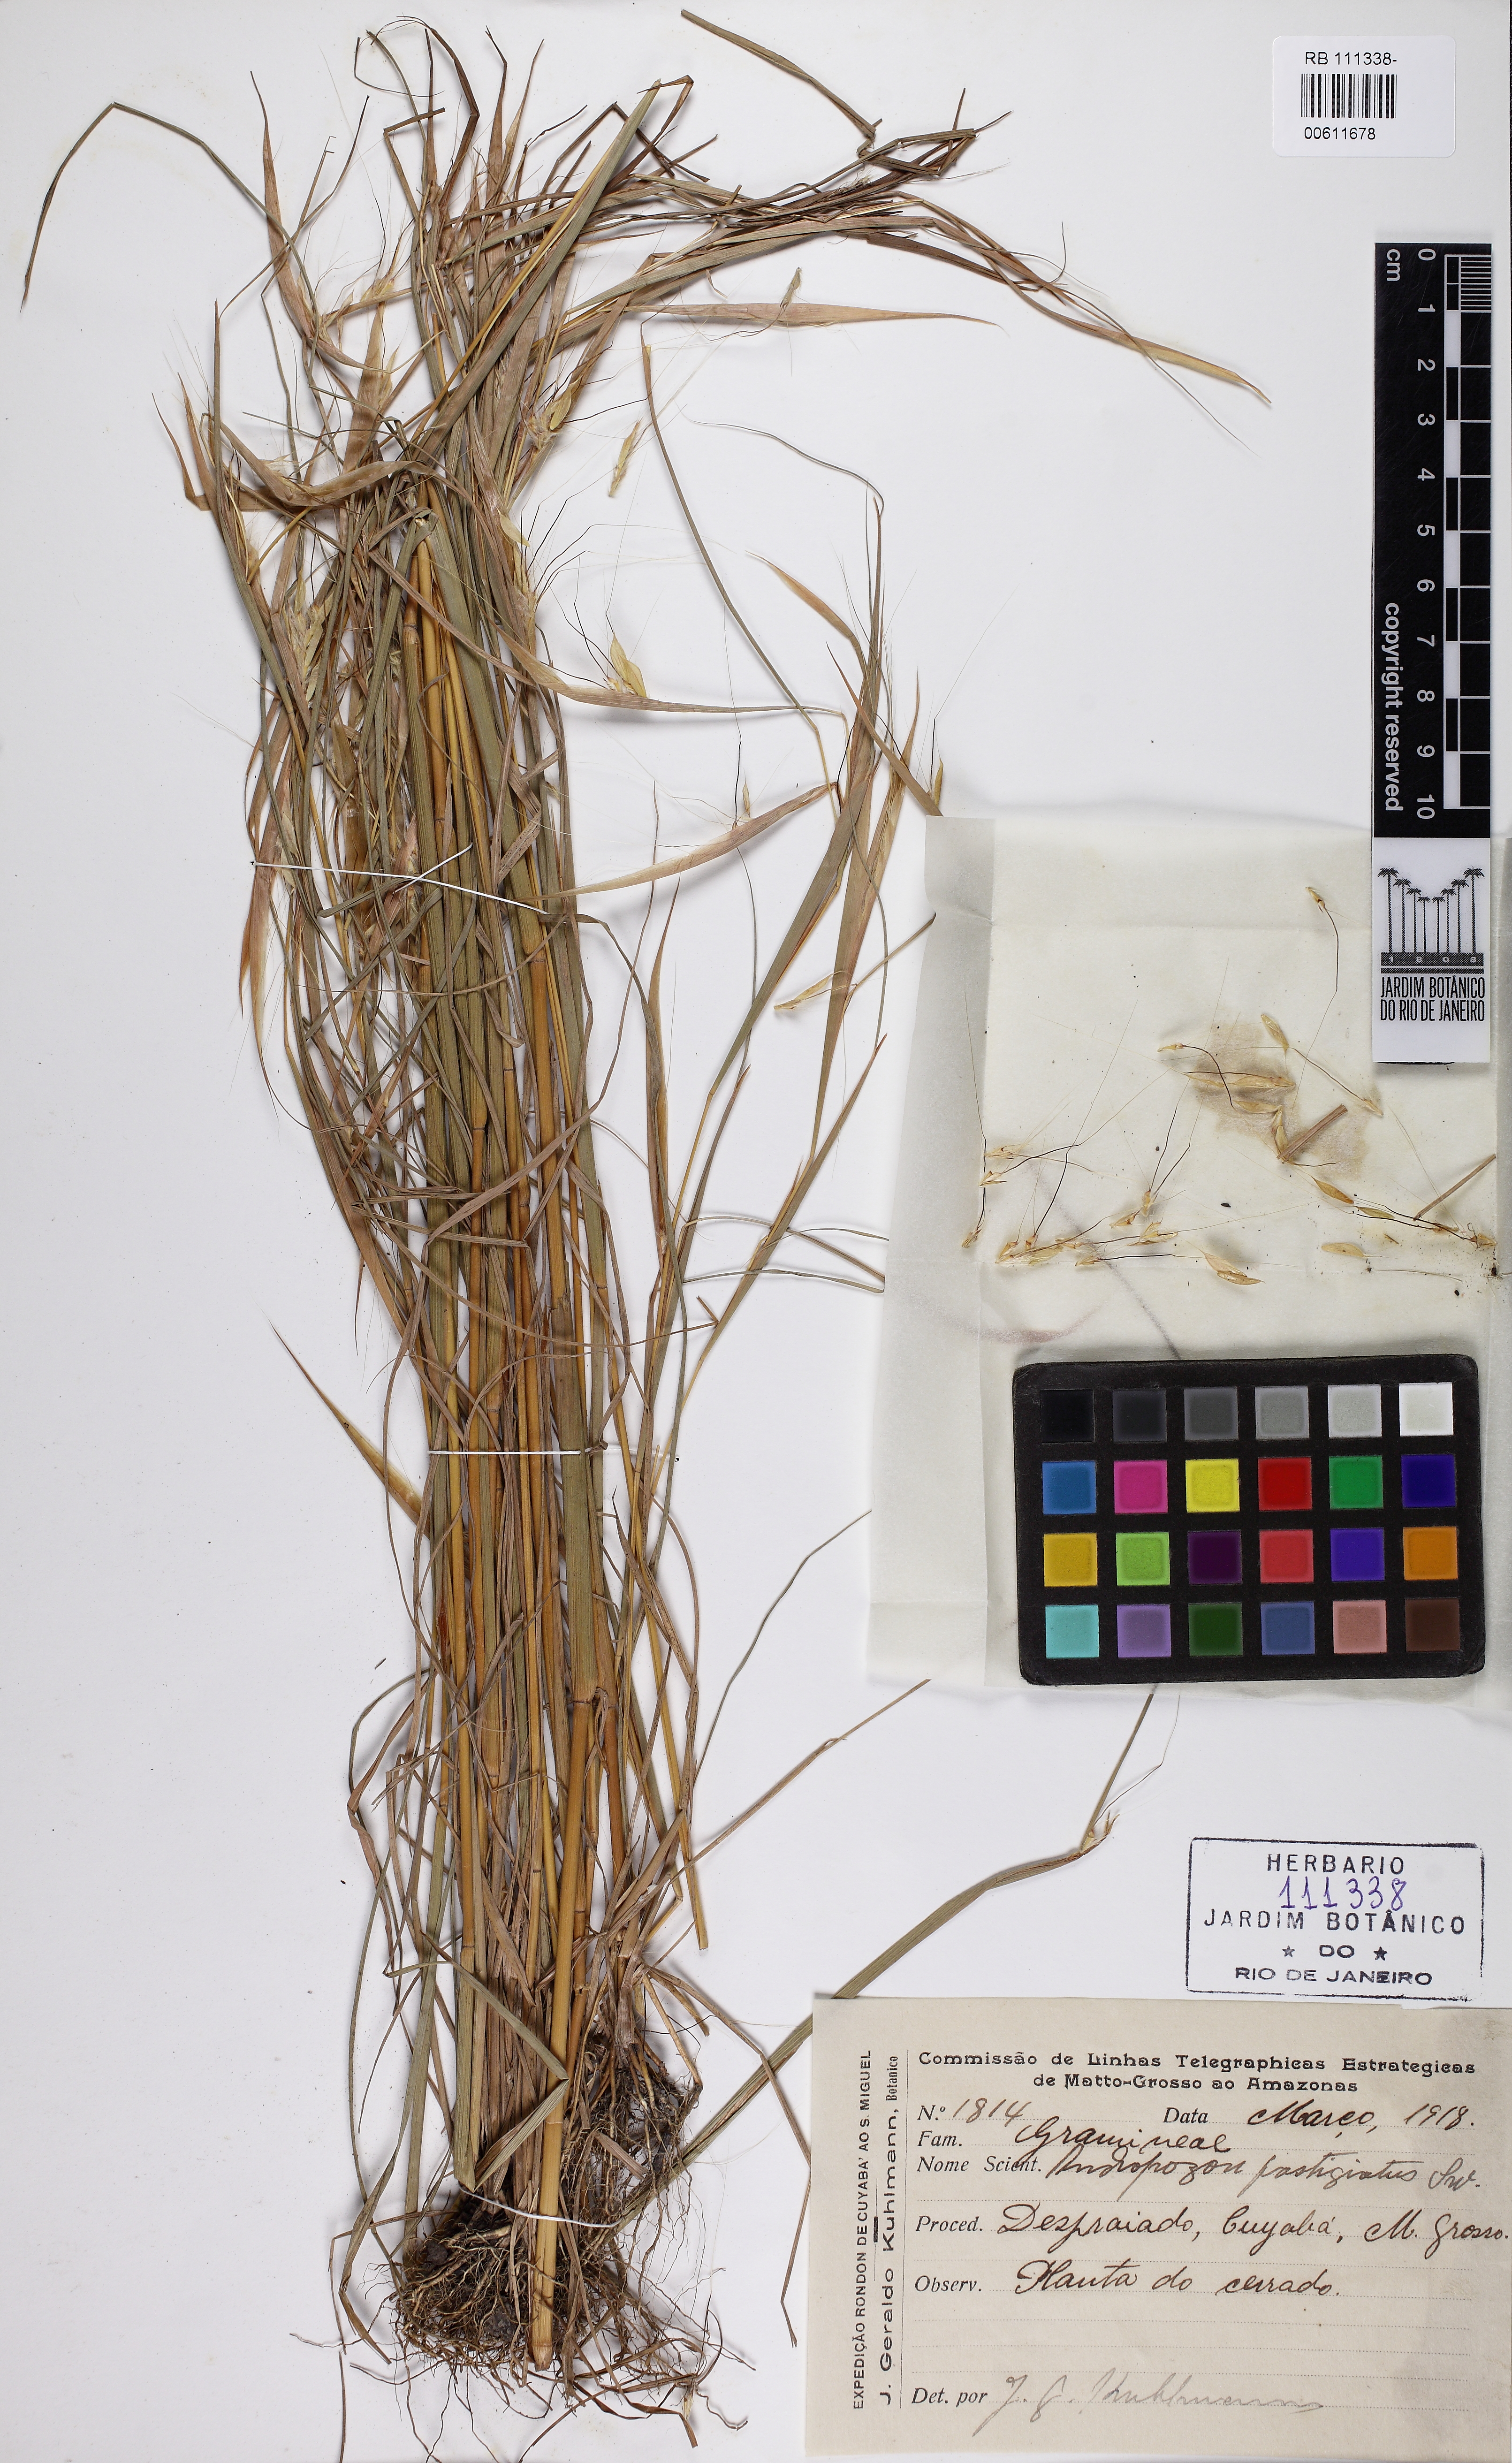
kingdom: Plantae
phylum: Tracheophyta
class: Liliopsida
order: Poales
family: Poaceae
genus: Diectomis
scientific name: Diectomis fastigiata
